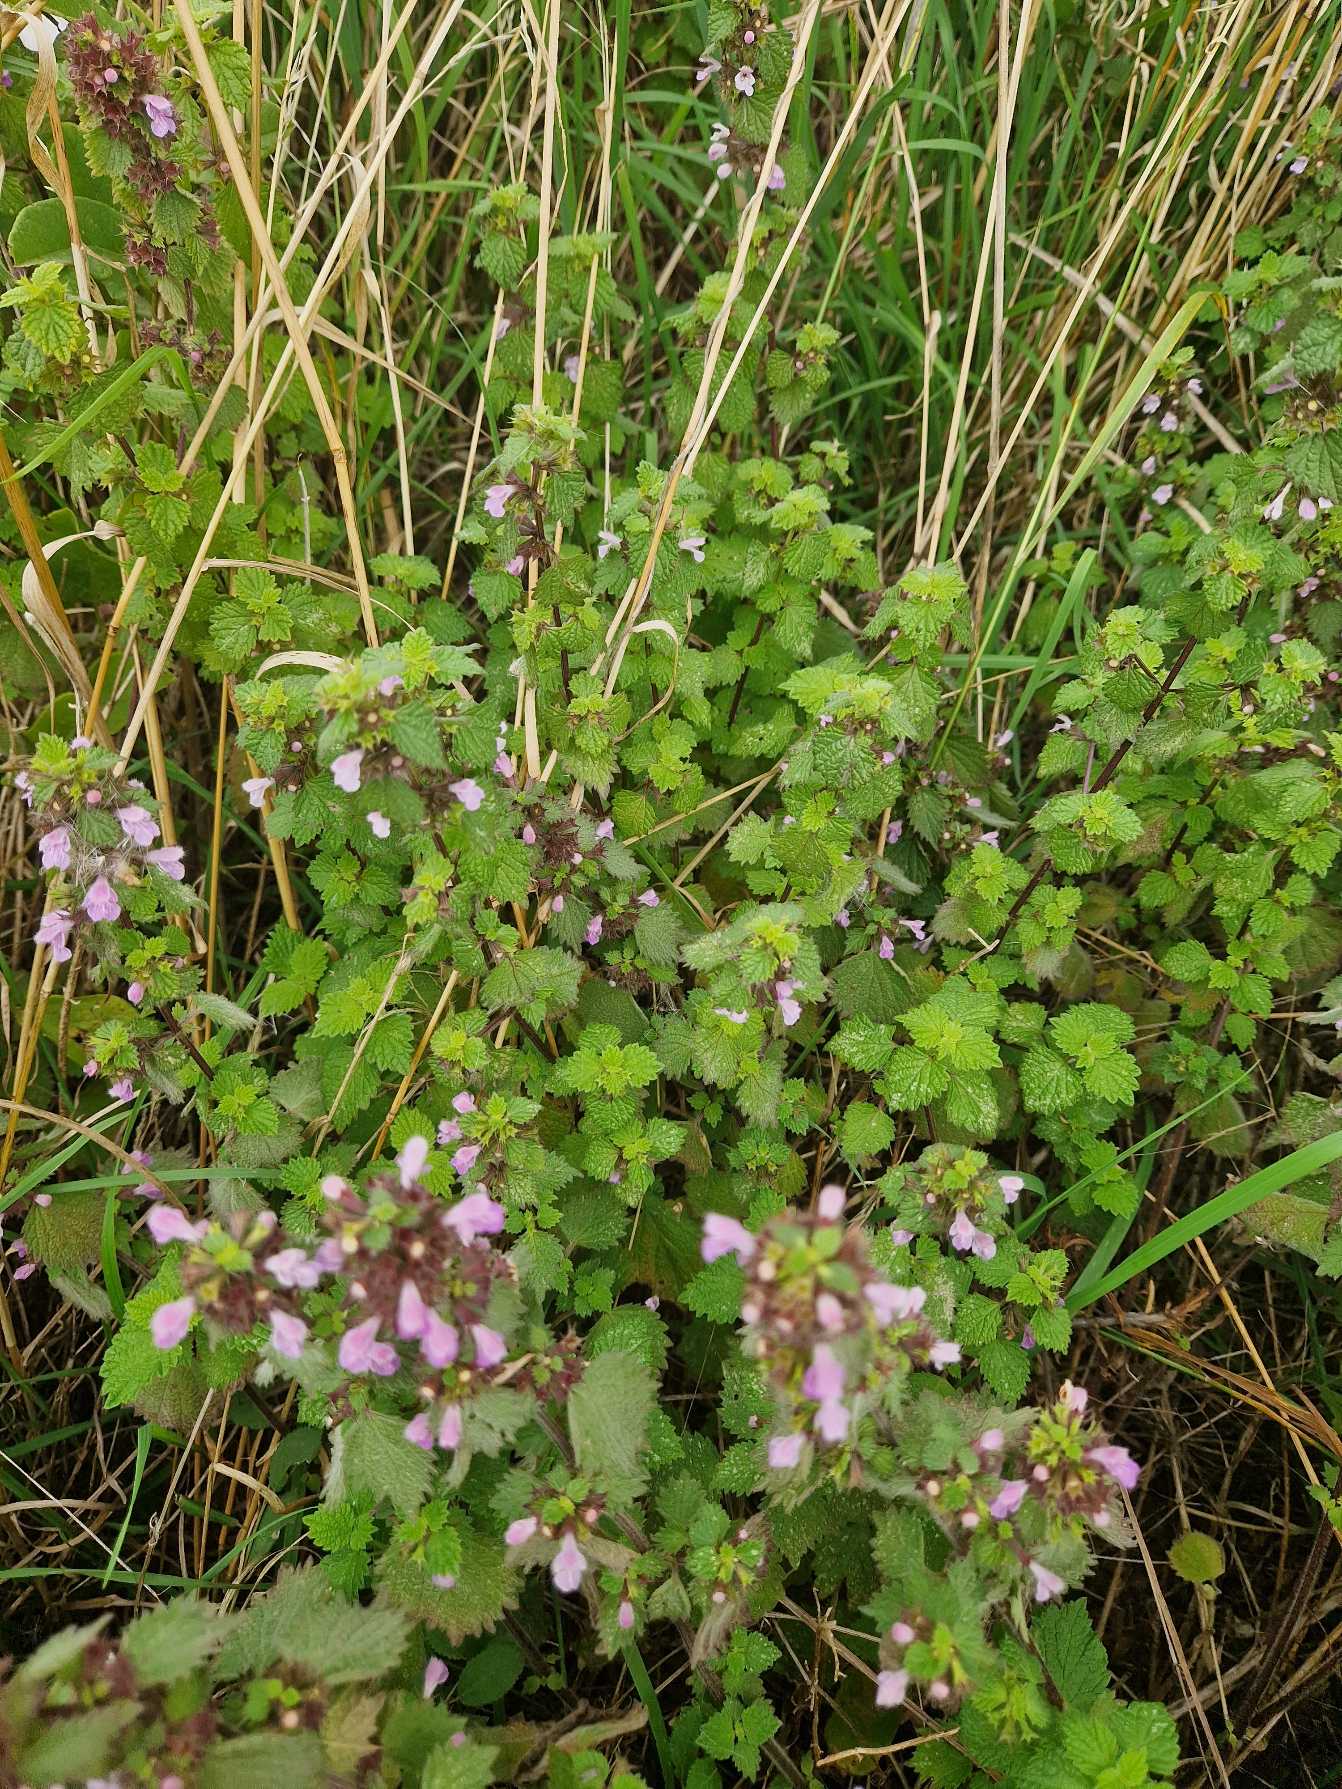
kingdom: Plantae
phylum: Tracheophyta
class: Magnoliopsida
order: Lamiales
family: Lamiaceae
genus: Ballota
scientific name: Ballota nigra
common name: Tandbæger
